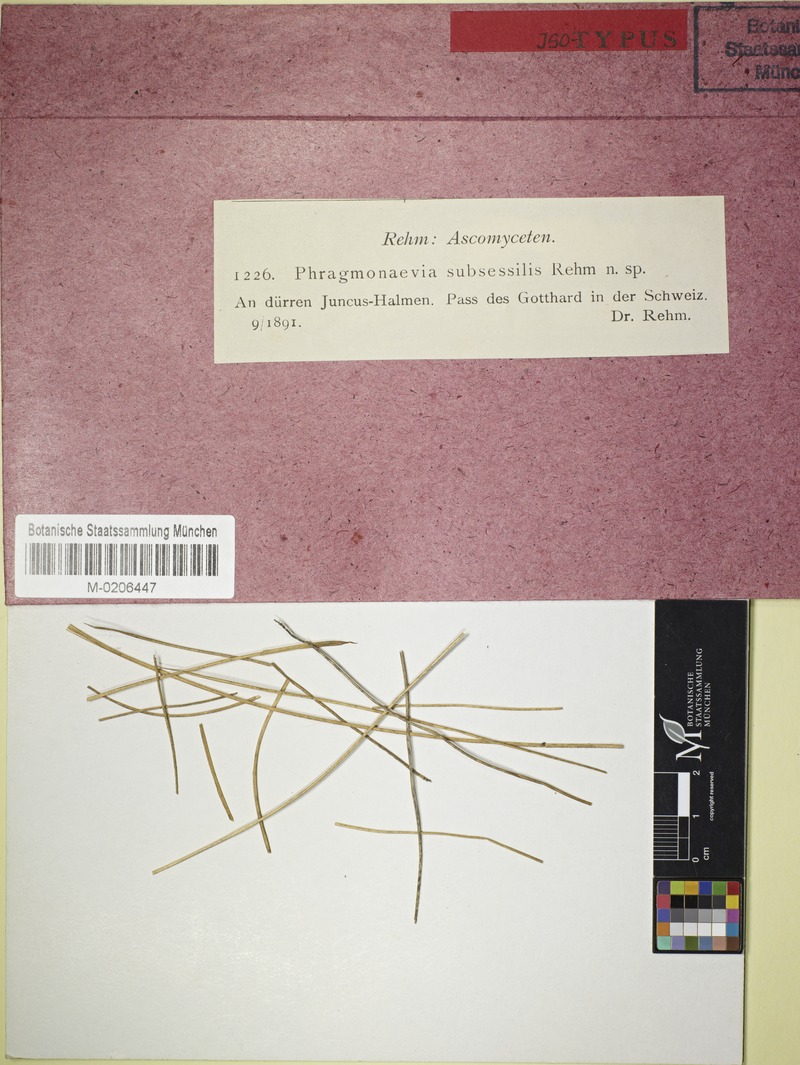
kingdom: Fungi
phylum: Ascomycota
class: Leotiomycetes
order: Helotiales
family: Dermateaceae
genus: Hysteropezizella
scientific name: Hysteropezizella foecunda
